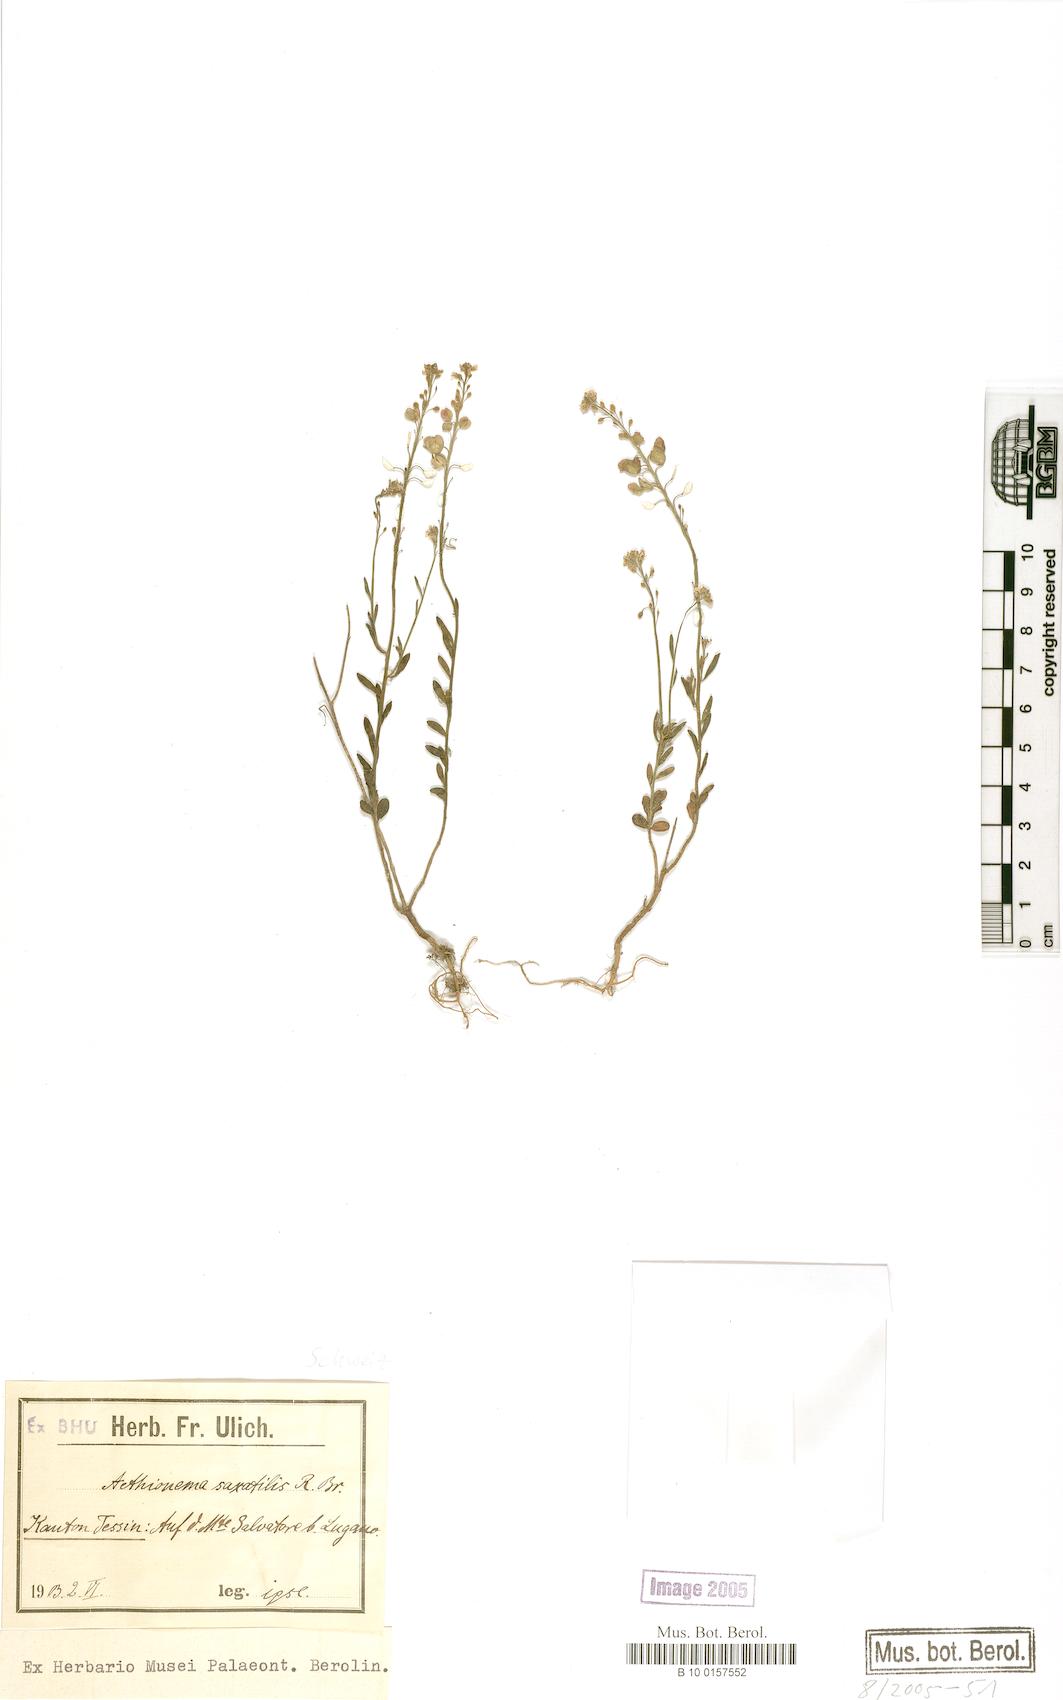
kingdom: Plantae
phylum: Tracheophyta
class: Magnoliopsida
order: Brassicales
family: Brassicaceae
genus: Aethionema
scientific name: Aethionema saxatile
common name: Burnt candytuft
